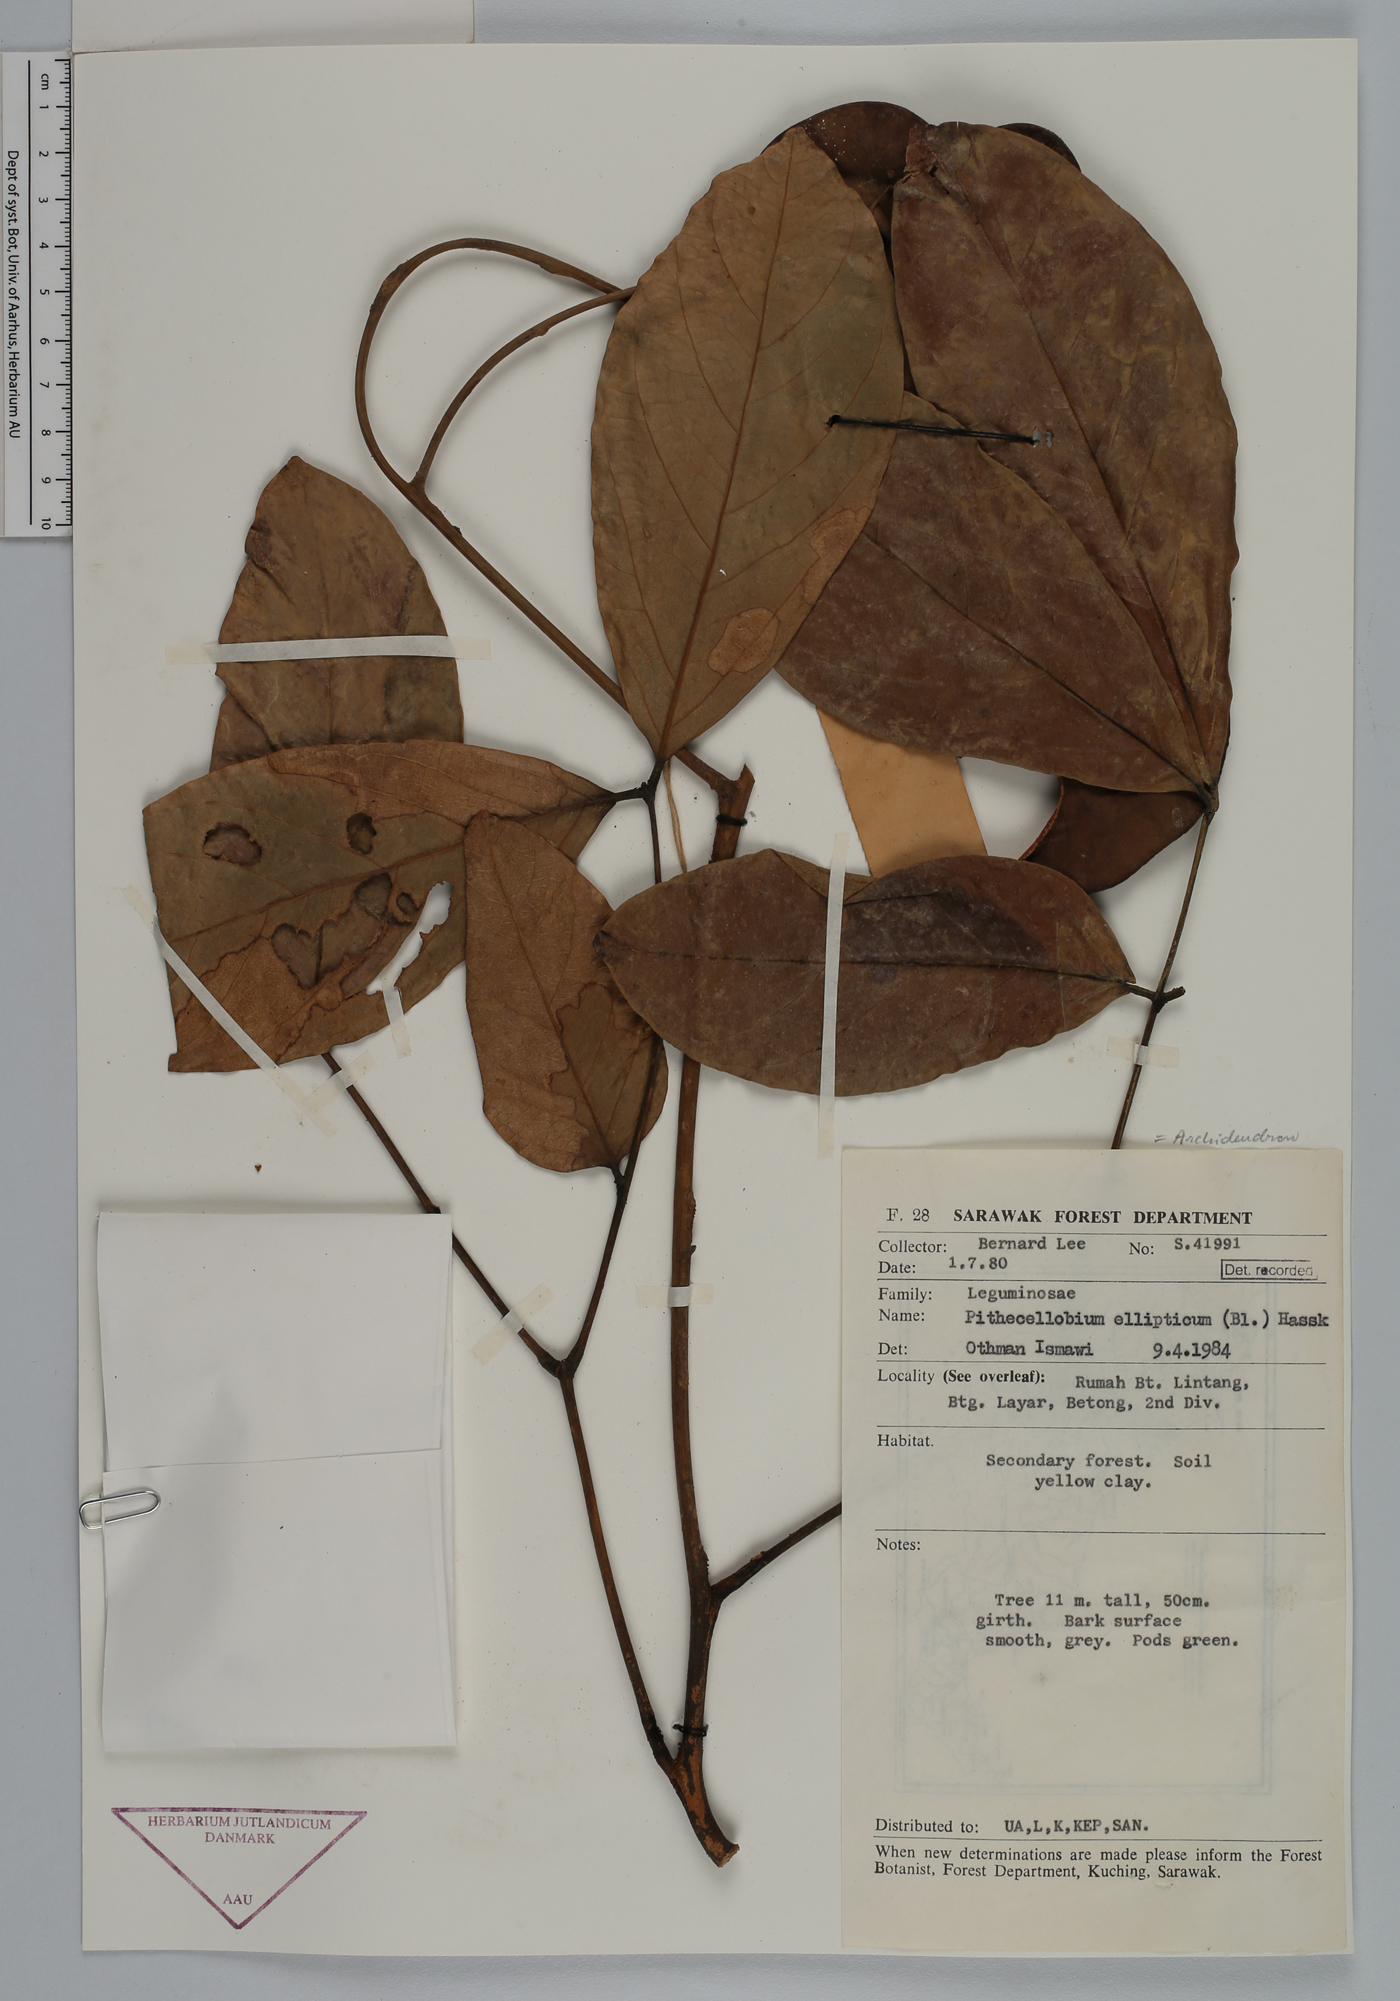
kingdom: Plantae
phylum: Tracheophyta
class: Magnoliopsida
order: Fabales
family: Fabaceae
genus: Archidendron
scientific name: Archidendron ellipticum
